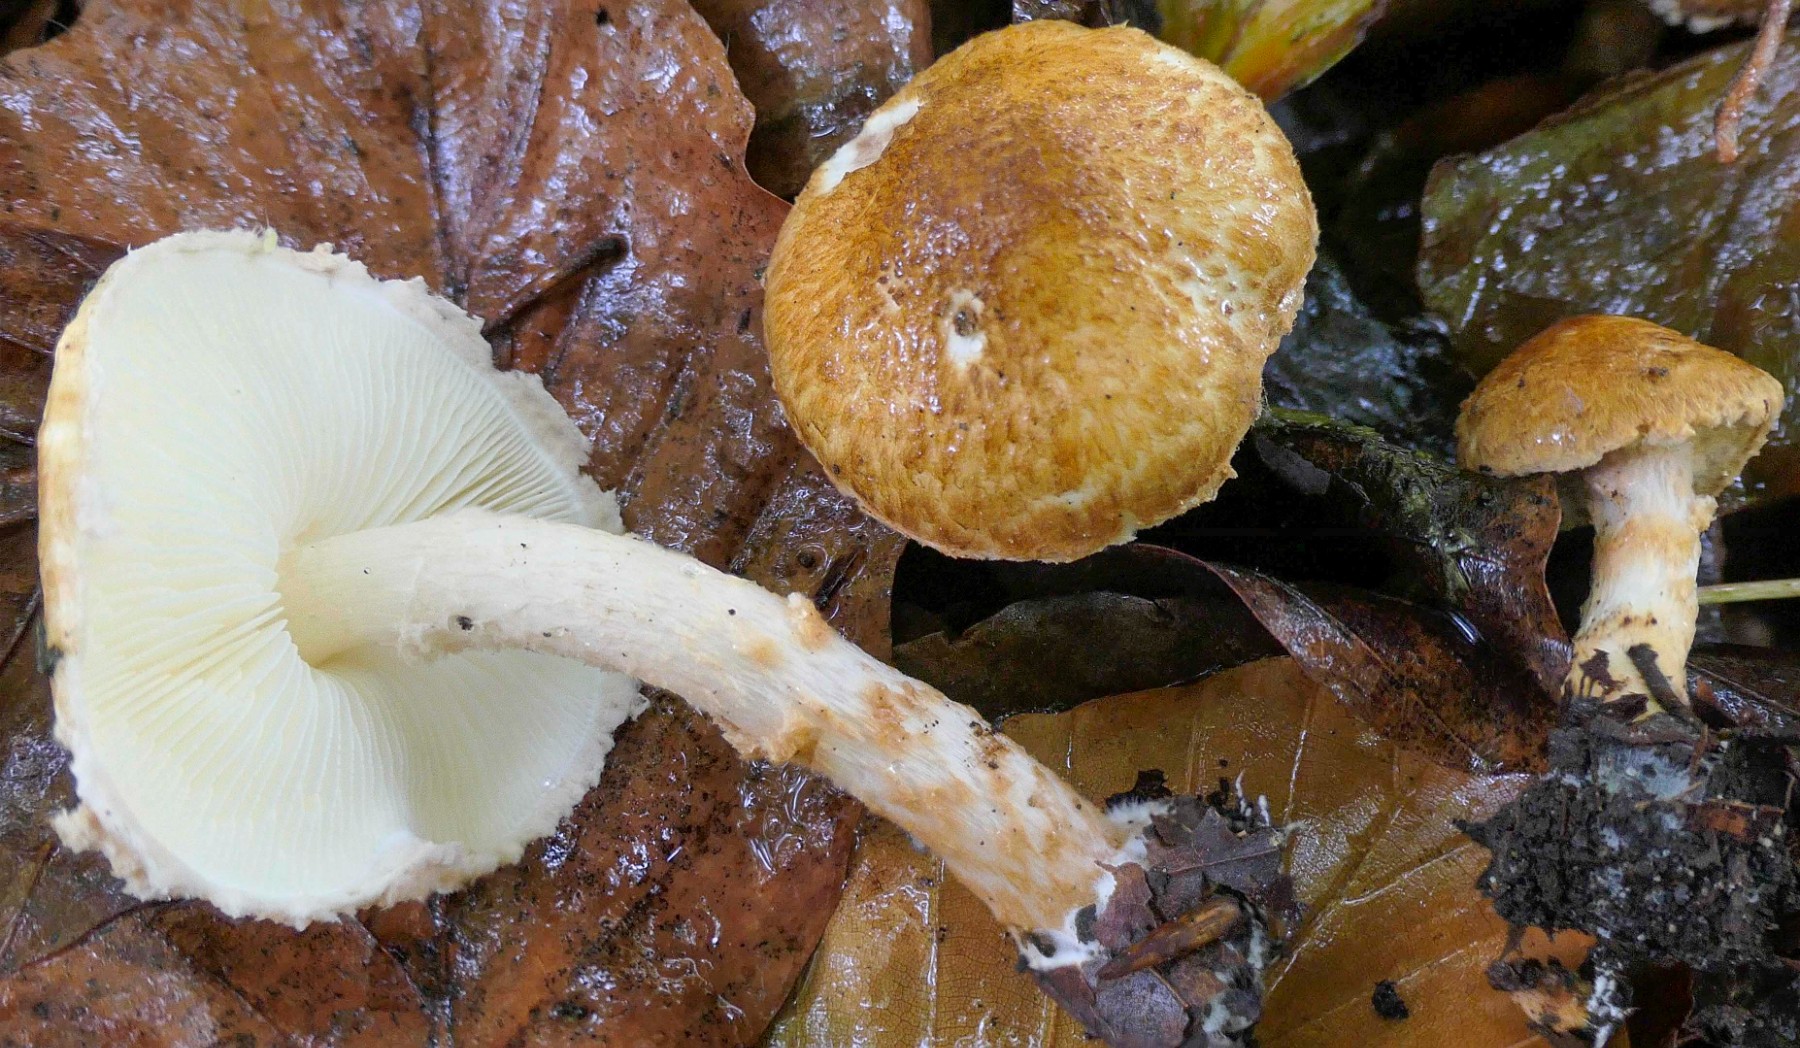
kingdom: Fungi
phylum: Basidiomycota
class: Agaricomycetes
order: Agaricales
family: Agaricaceae
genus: Lepiota
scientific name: Lepiota castanea
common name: kastaniebrun parasolhat
